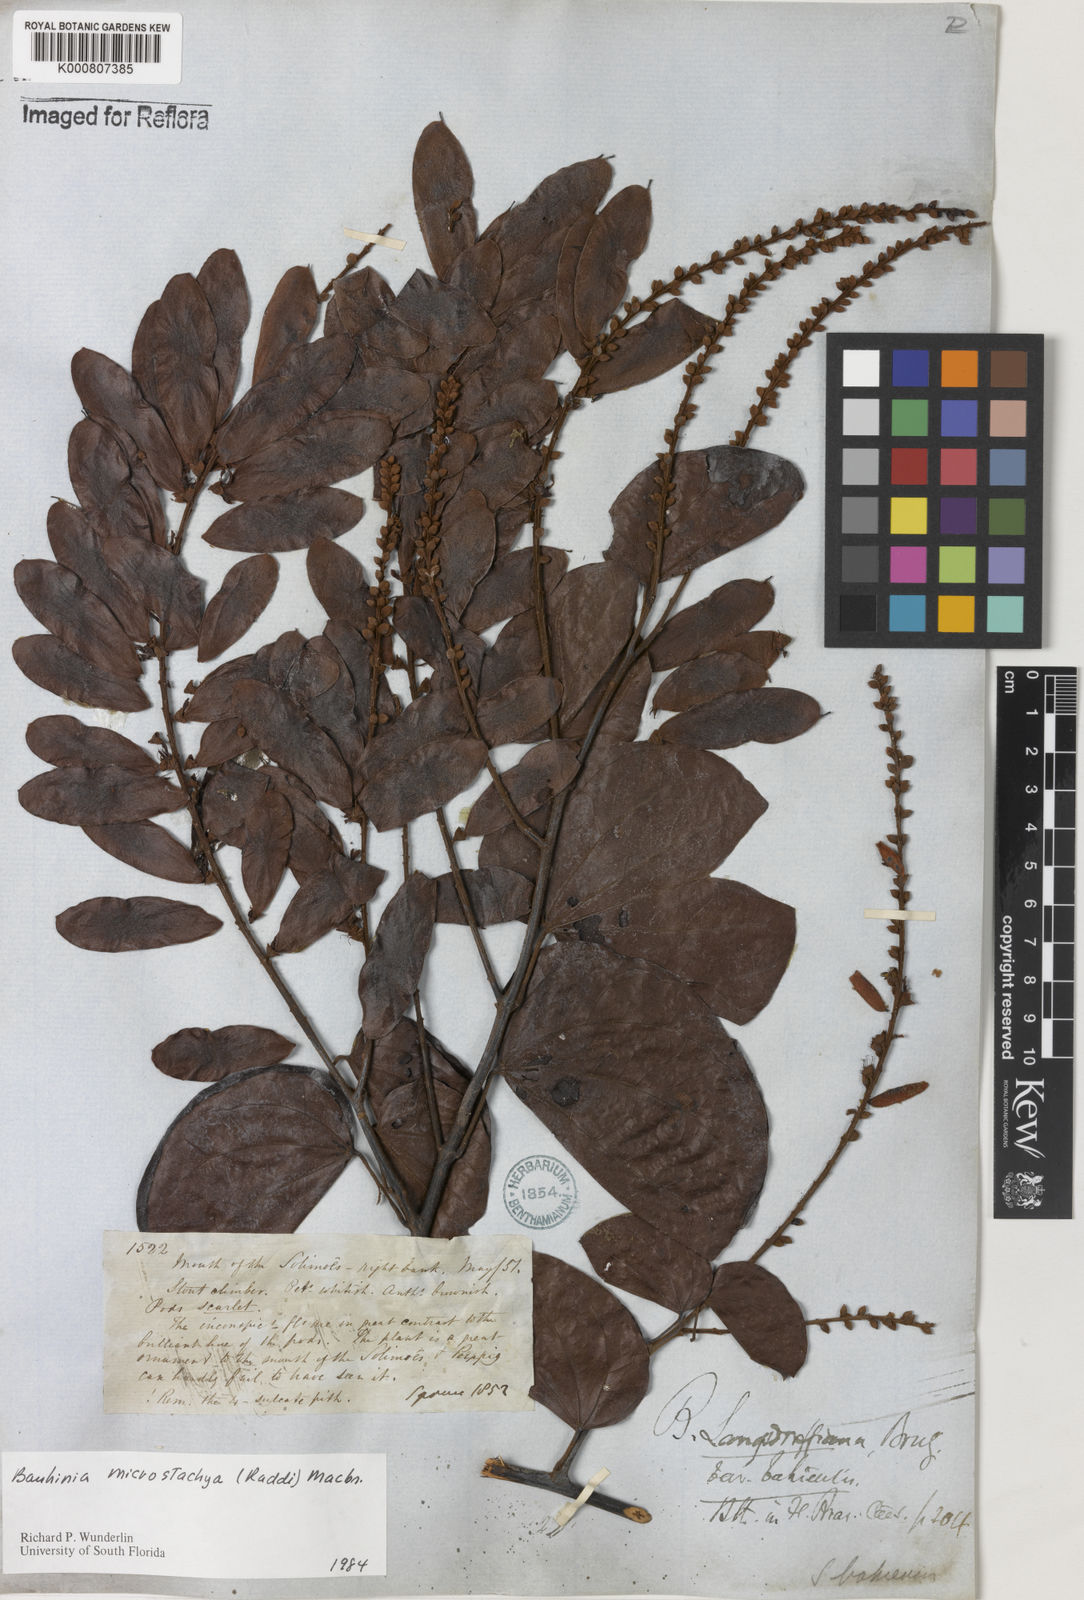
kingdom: Plantae
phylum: Tracheophyta
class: Magnoliopsida
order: Fabales
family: Fabaceae
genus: Schnella
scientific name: Schnella microstachya
